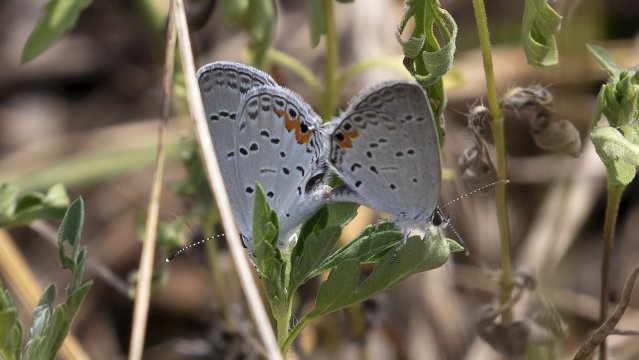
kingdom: Animalia
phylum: Arthropoda
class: Insecta
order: Lepidoptera
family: Lycaenidae
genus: Elkalyce
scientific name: Elkalyce comyntas
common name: Eastern Tailed-Blue
